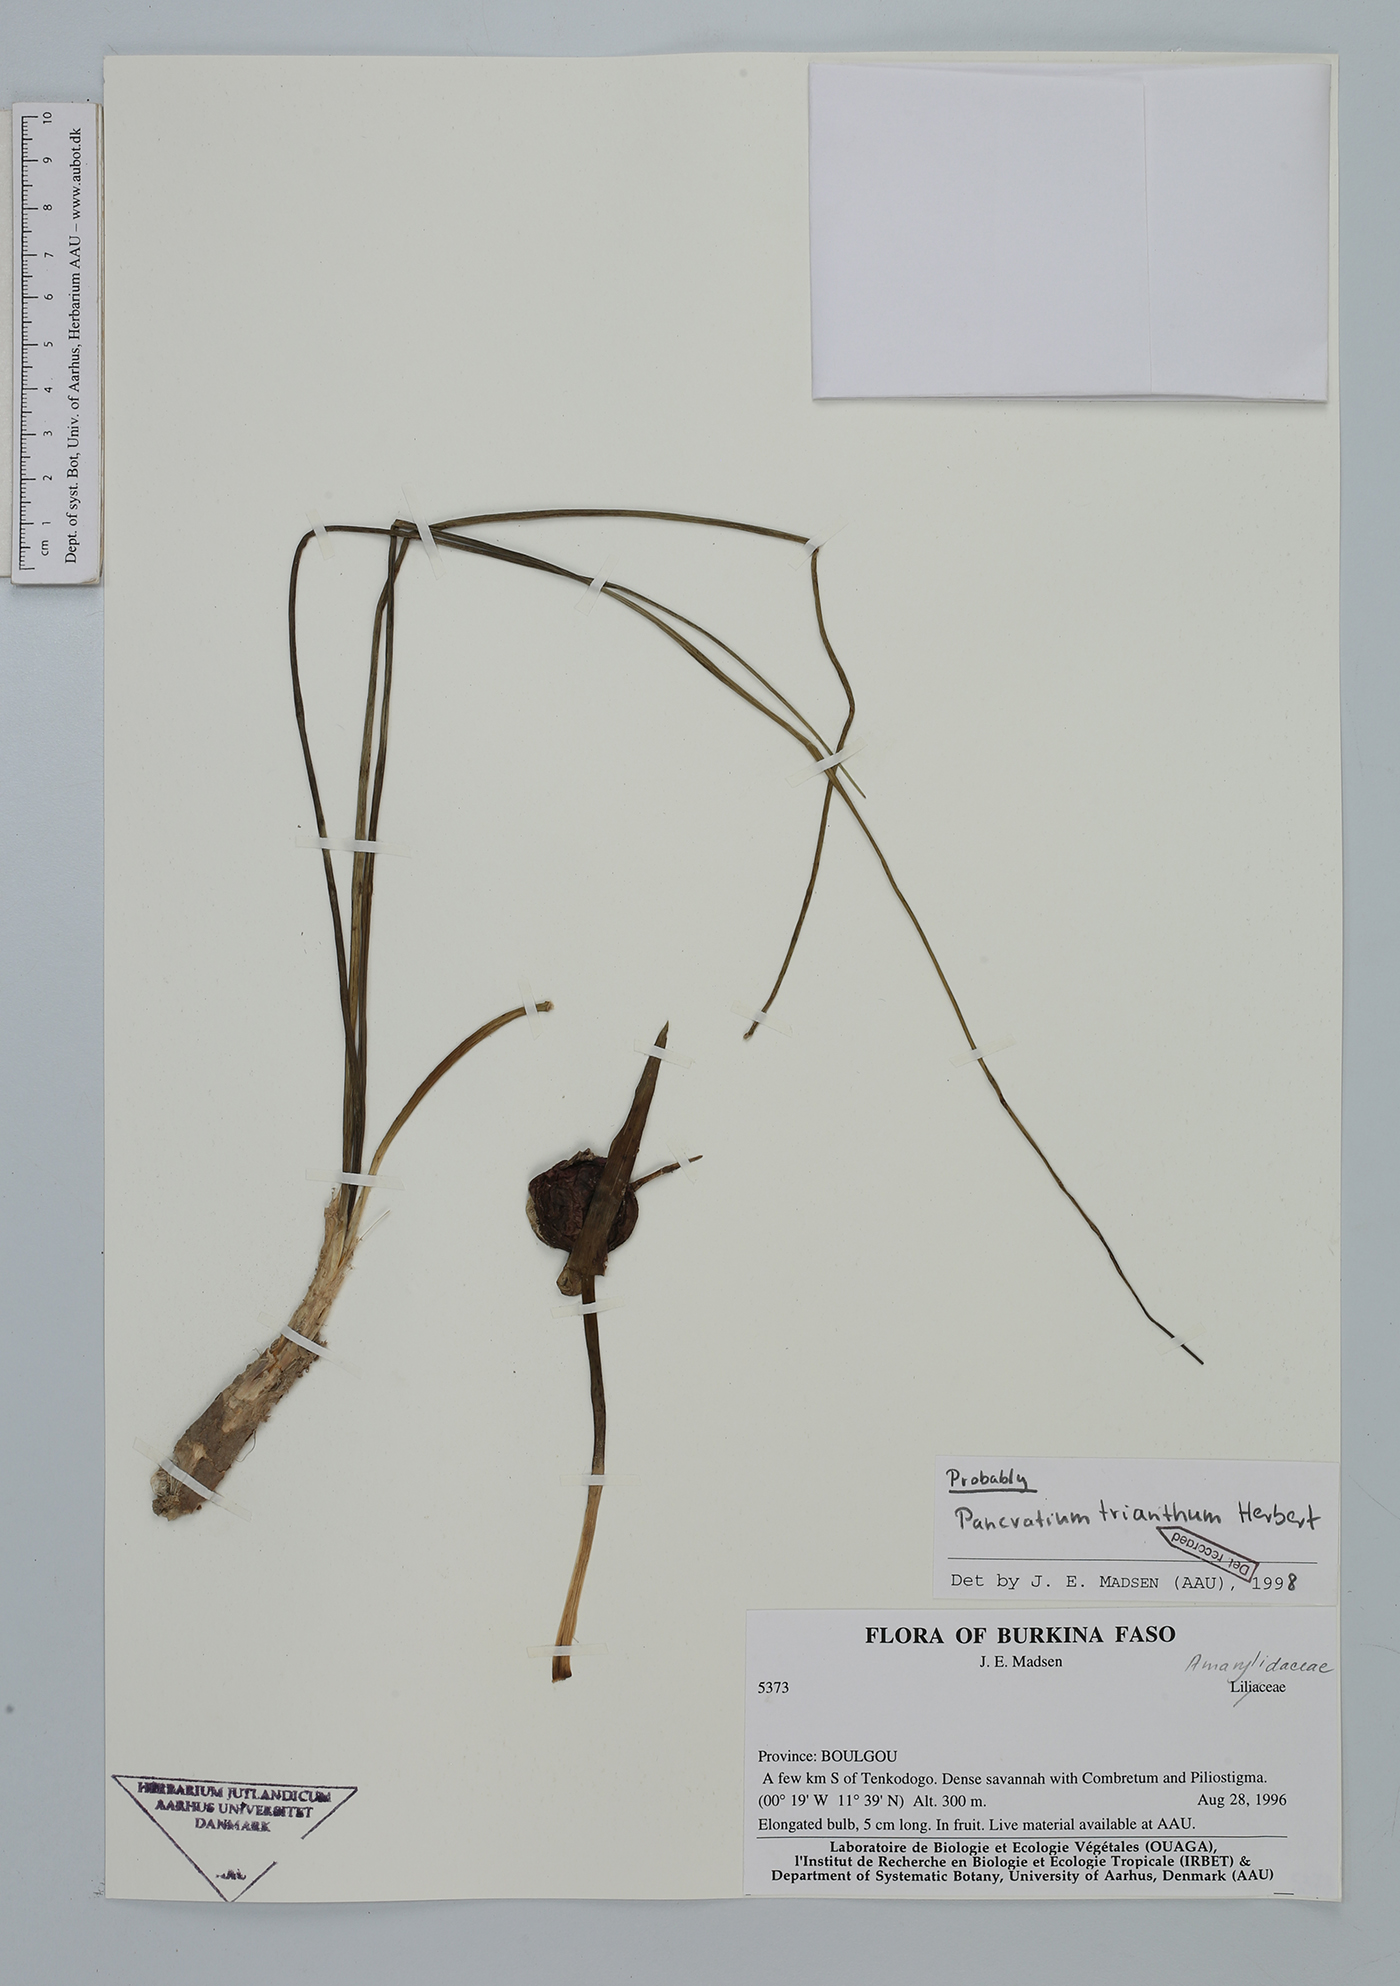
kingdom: Plantae
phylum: Tracheophyta
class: Liliopsida
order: Asparagales
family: Amaryllidaceae
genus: Pancratium
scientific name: Pancratium trianthum
